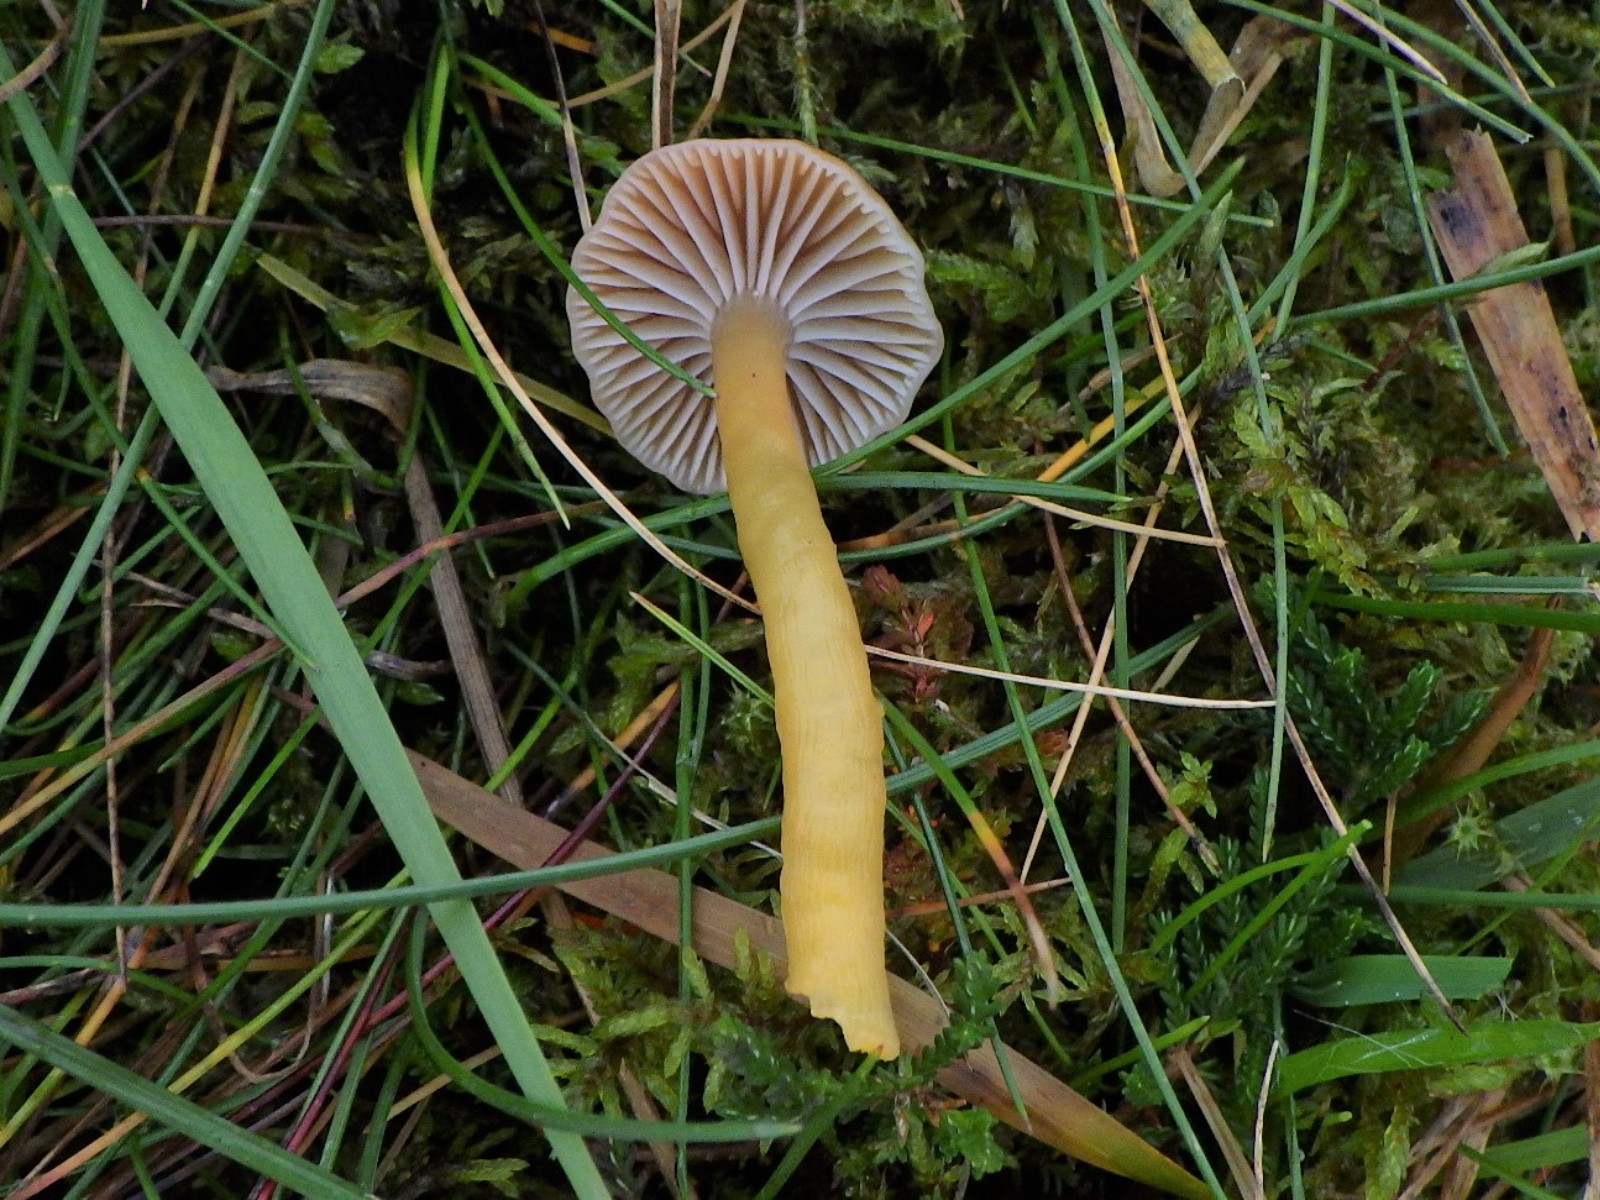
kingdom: Fungi
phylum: Basidiomycota
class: Agaricomycetes
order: Agaricales
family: Hygrophoraceae
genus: Gliophorus
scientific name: Gliophorus laetus
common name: brusk-vokshat
